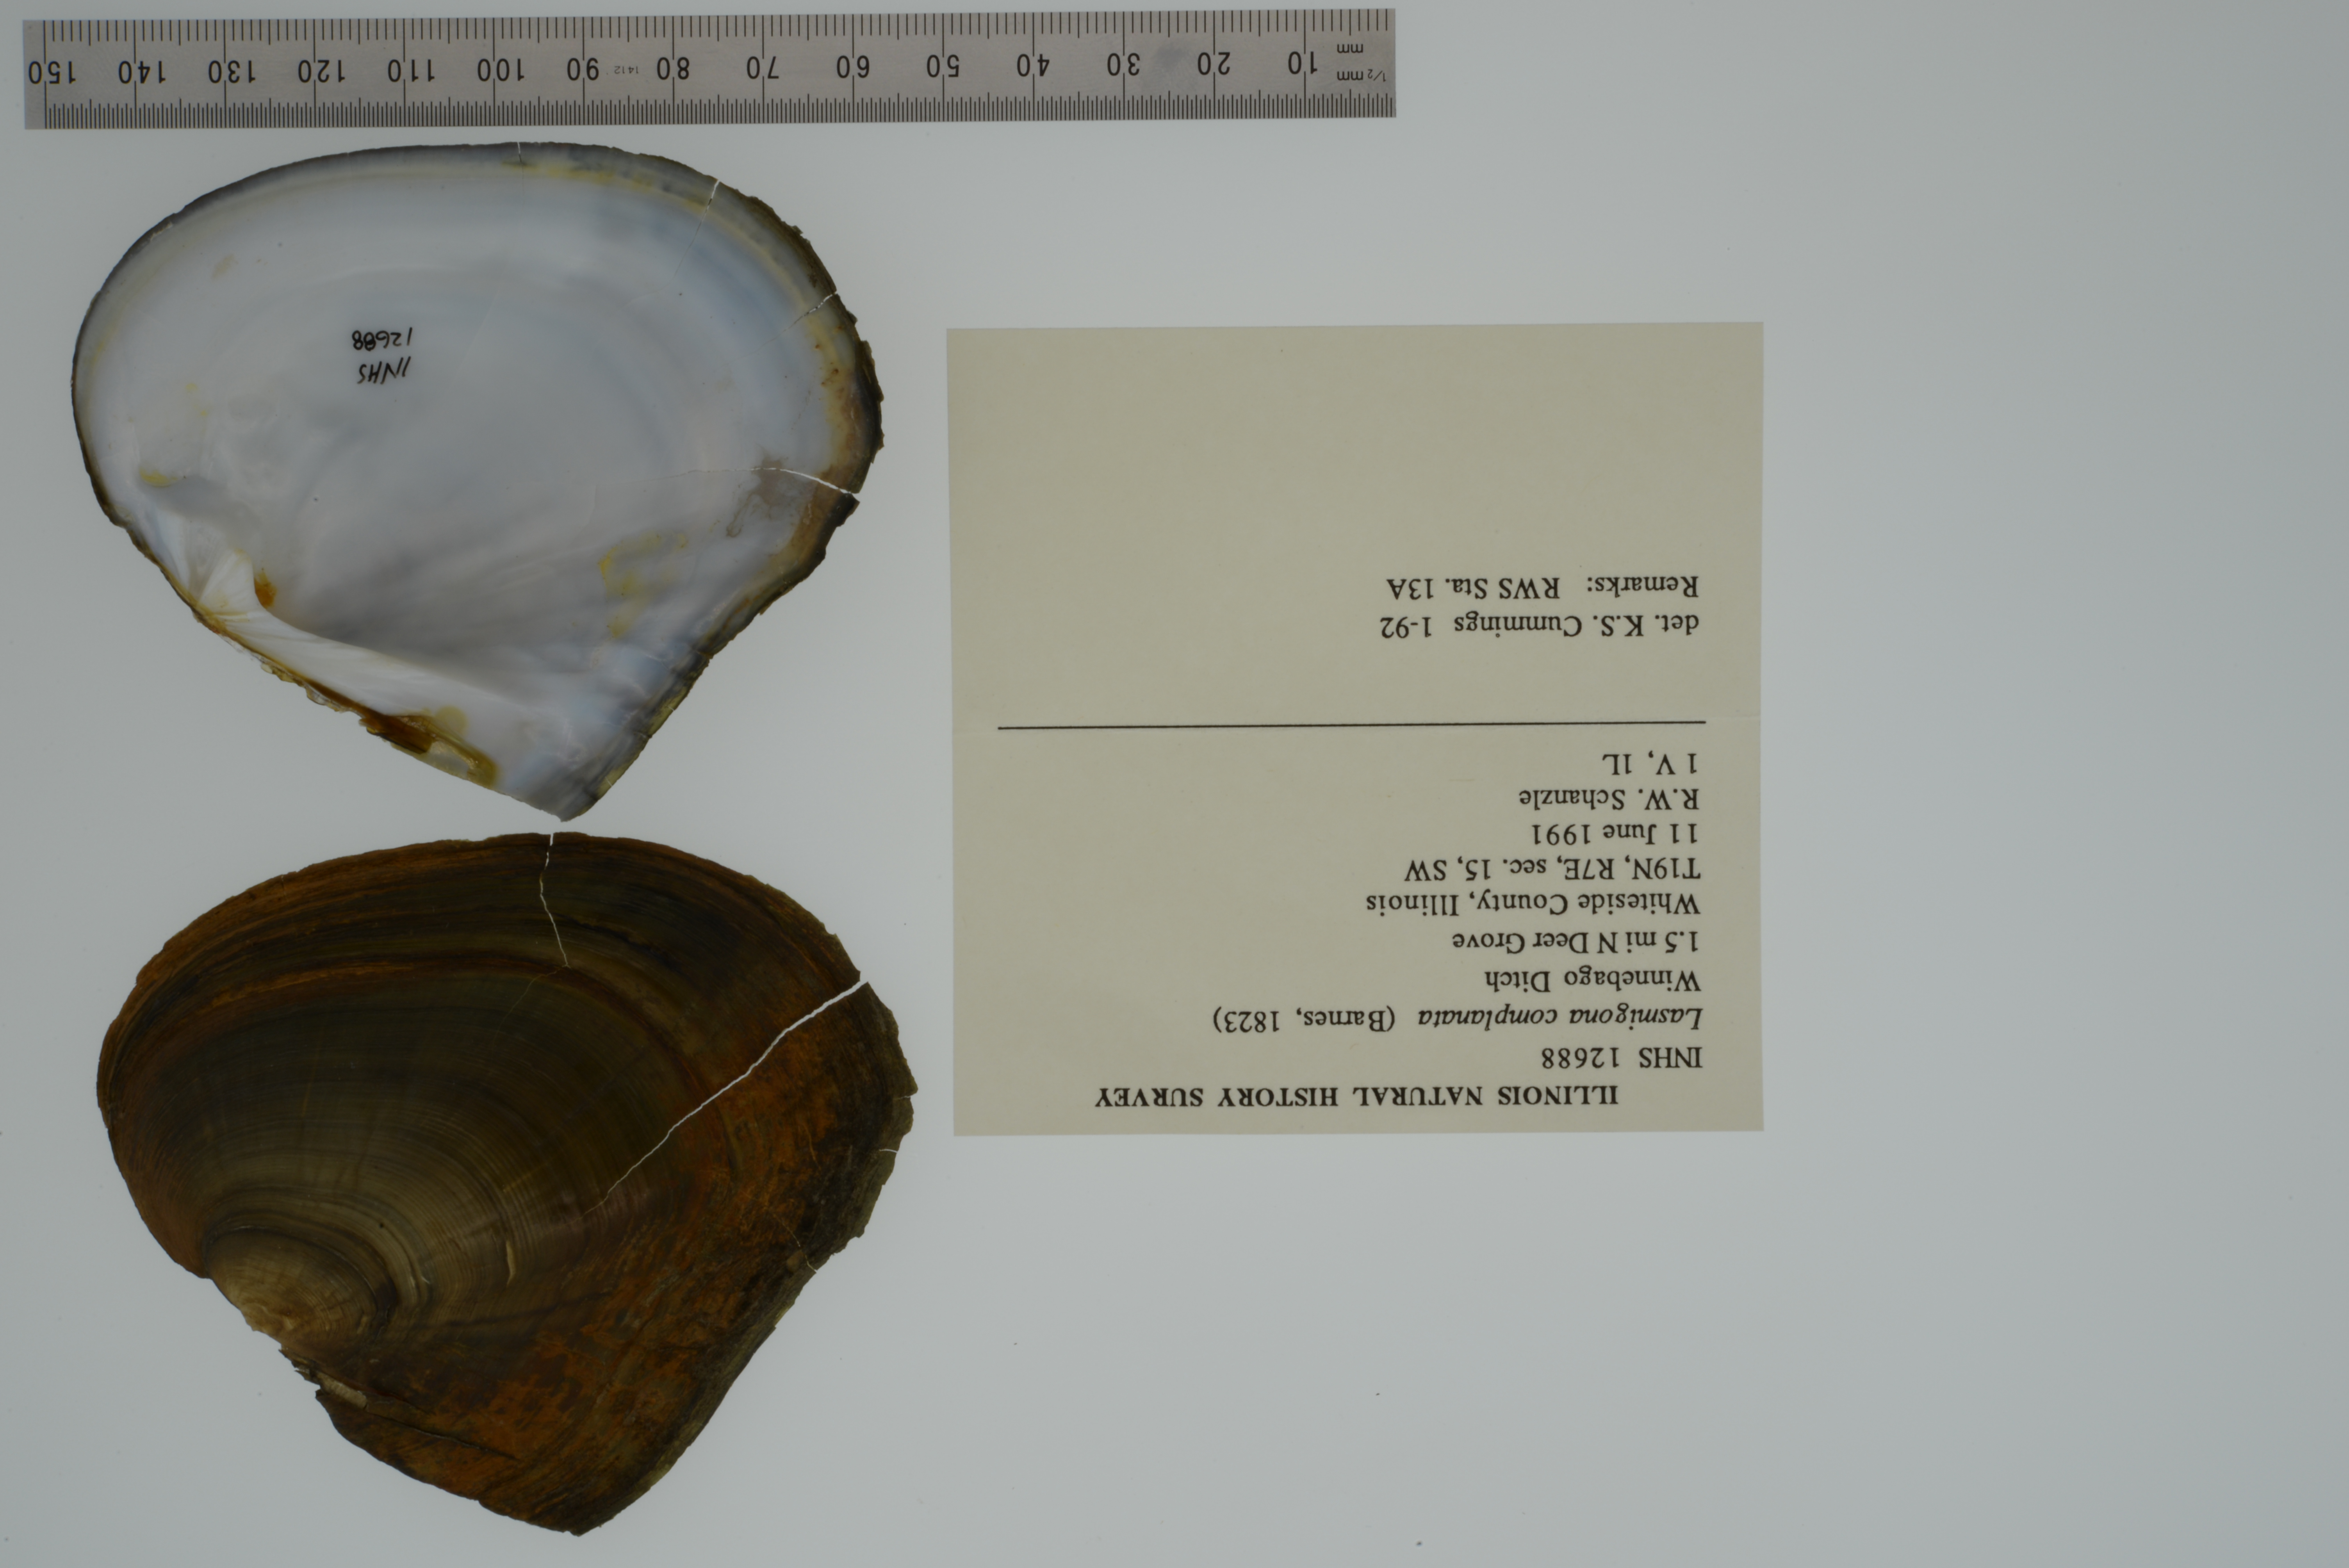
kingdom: Animalia
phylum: Mollusca
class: Bivalvia
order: Unionida
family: Unionidae
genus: Lasmigona
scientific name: Lasmigona complanata
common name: White heelsplitter
